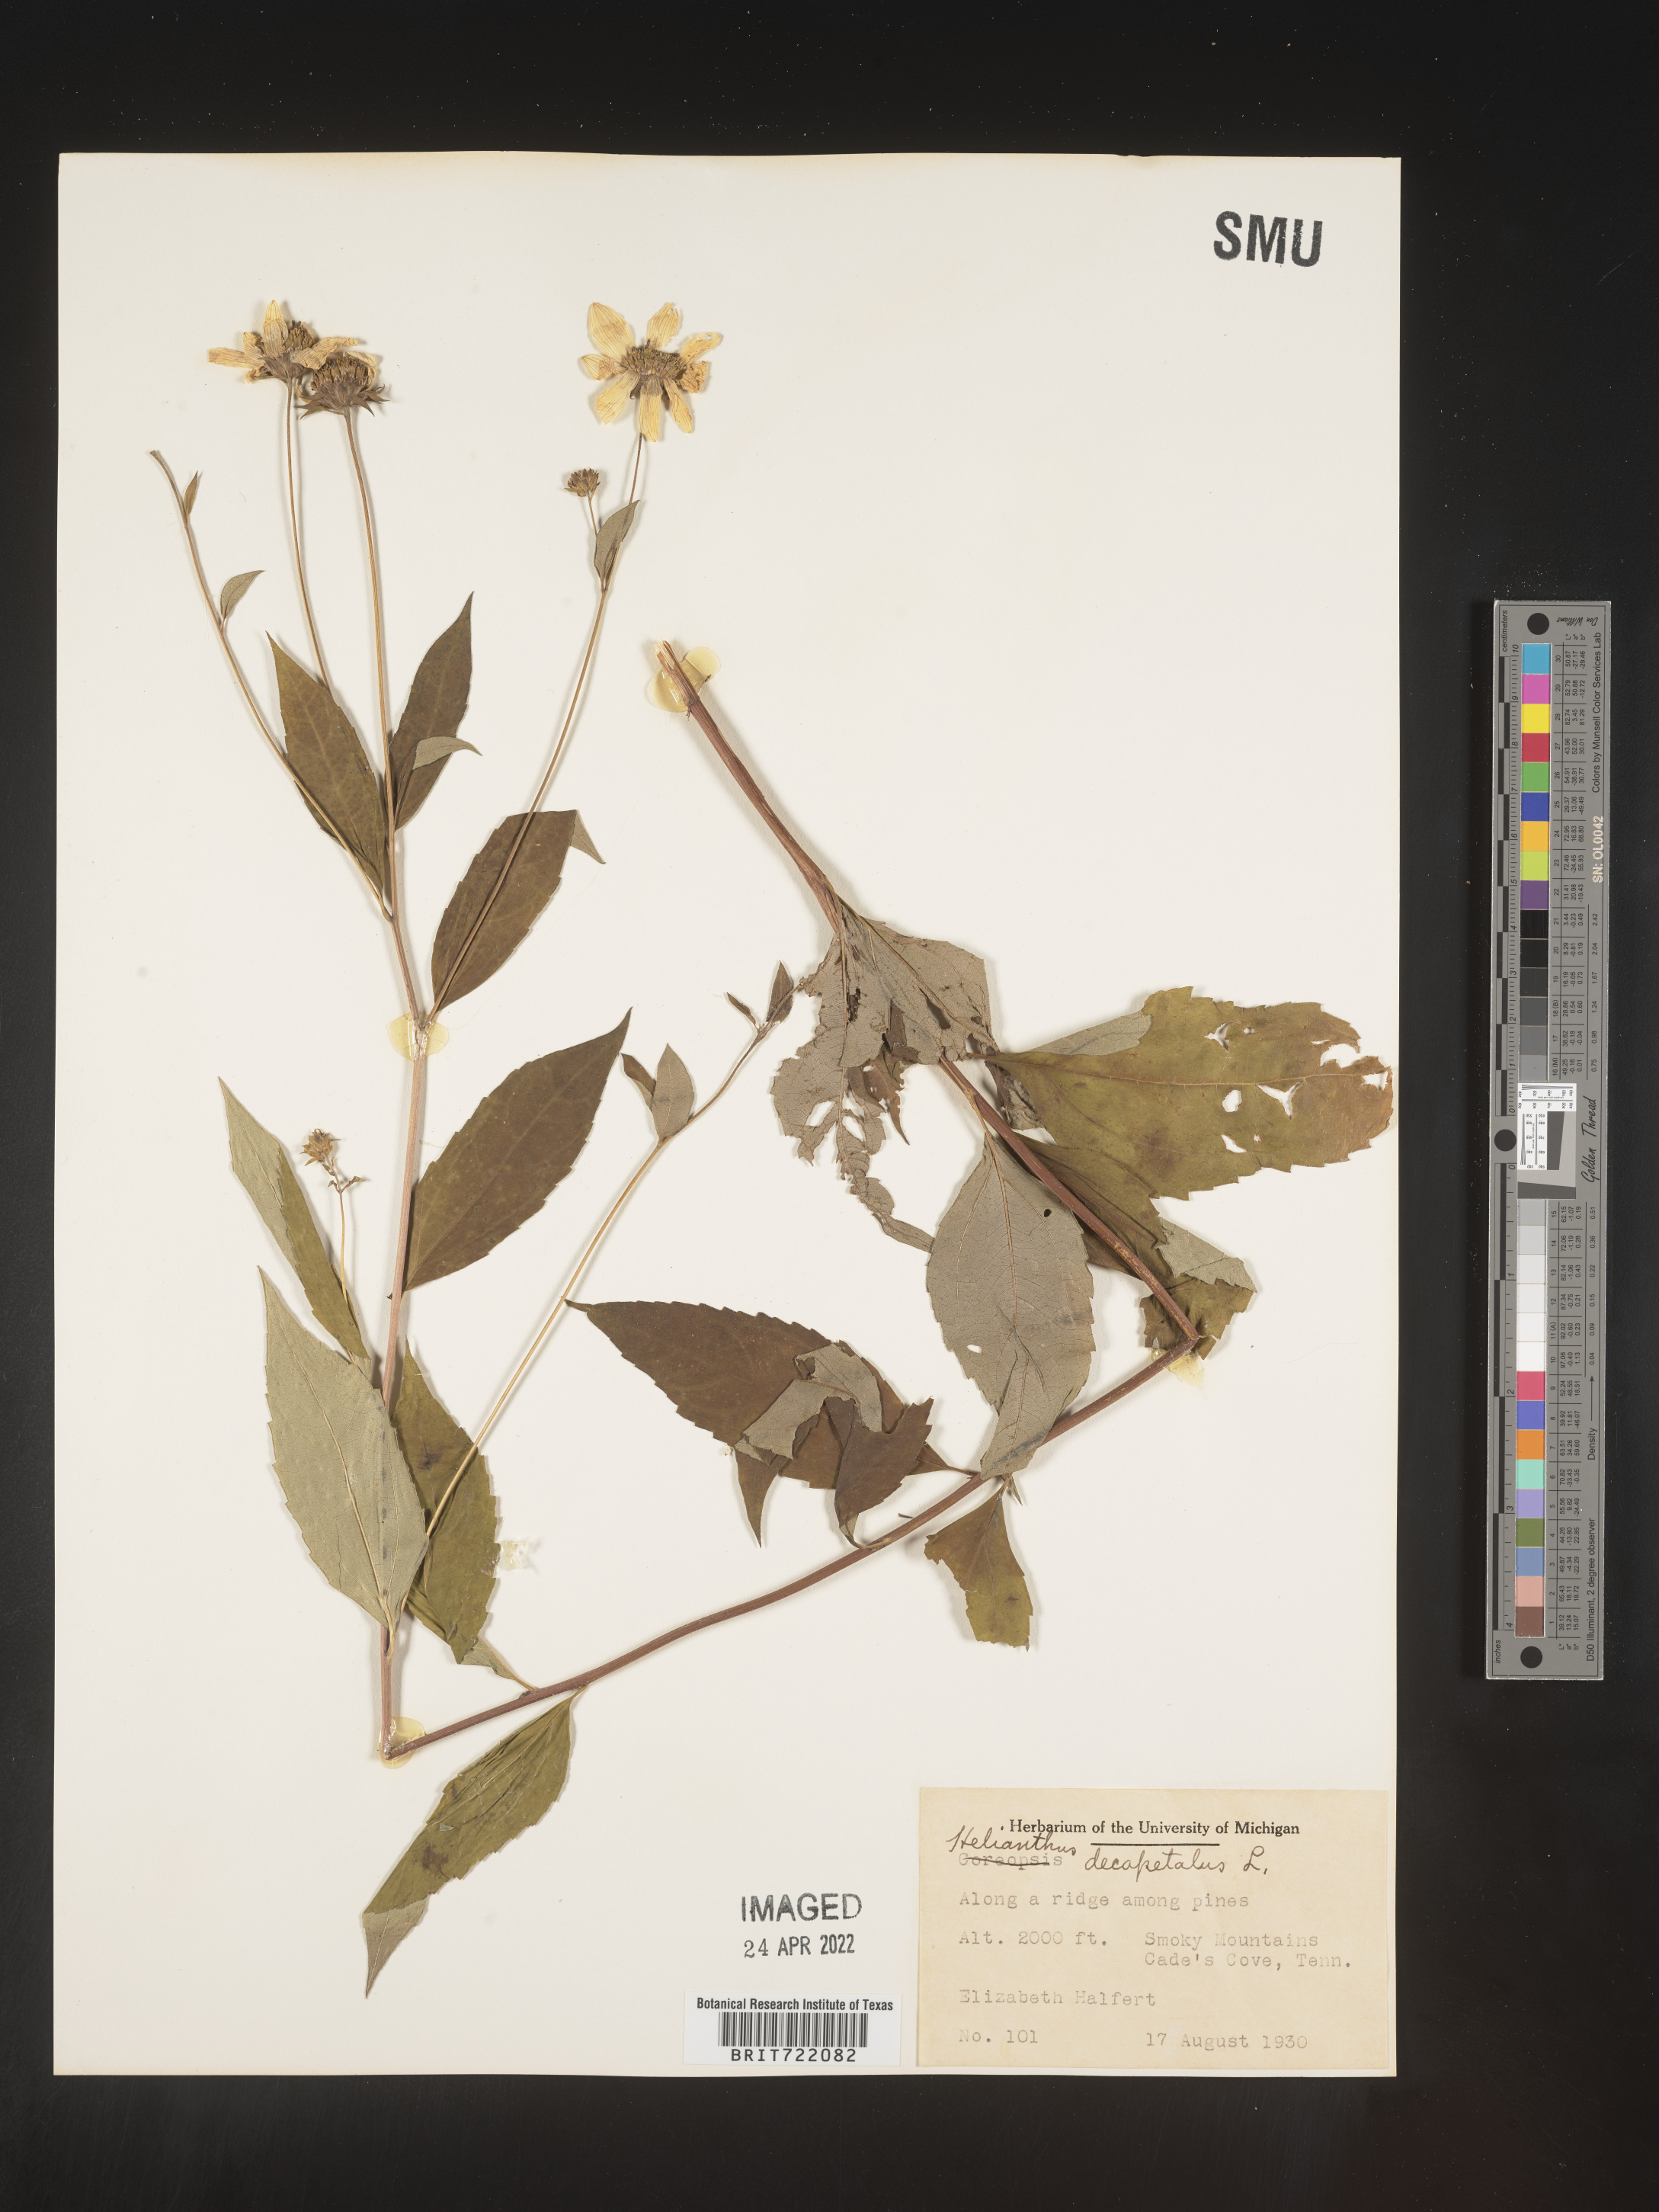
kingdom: Plantae
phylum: Tracheophyta
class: Magnoliopsida
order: Asterales
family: Asteraceae
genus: Helianthus
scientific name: Helianthus decapetalus
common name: Thin-leaved sunflower
